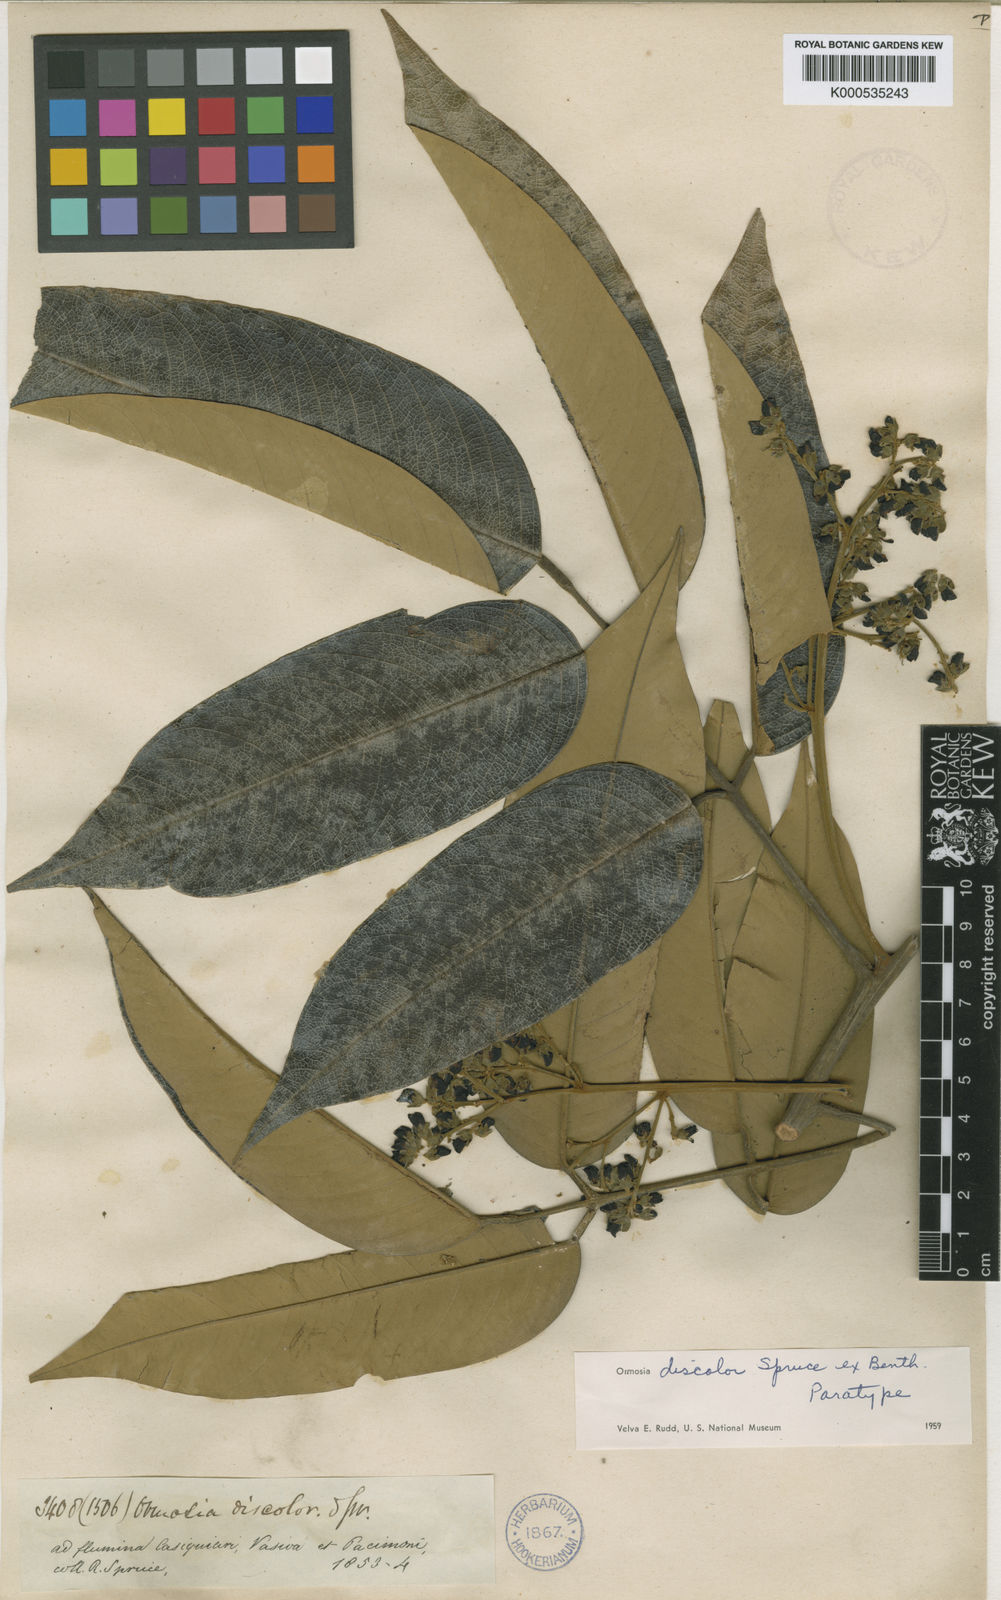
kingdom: Plantae
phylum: Tracheophyta
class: Magnoliopsida
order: Fabales
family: Fabaceae
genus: Ormosia
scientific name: Ormosia discolor
